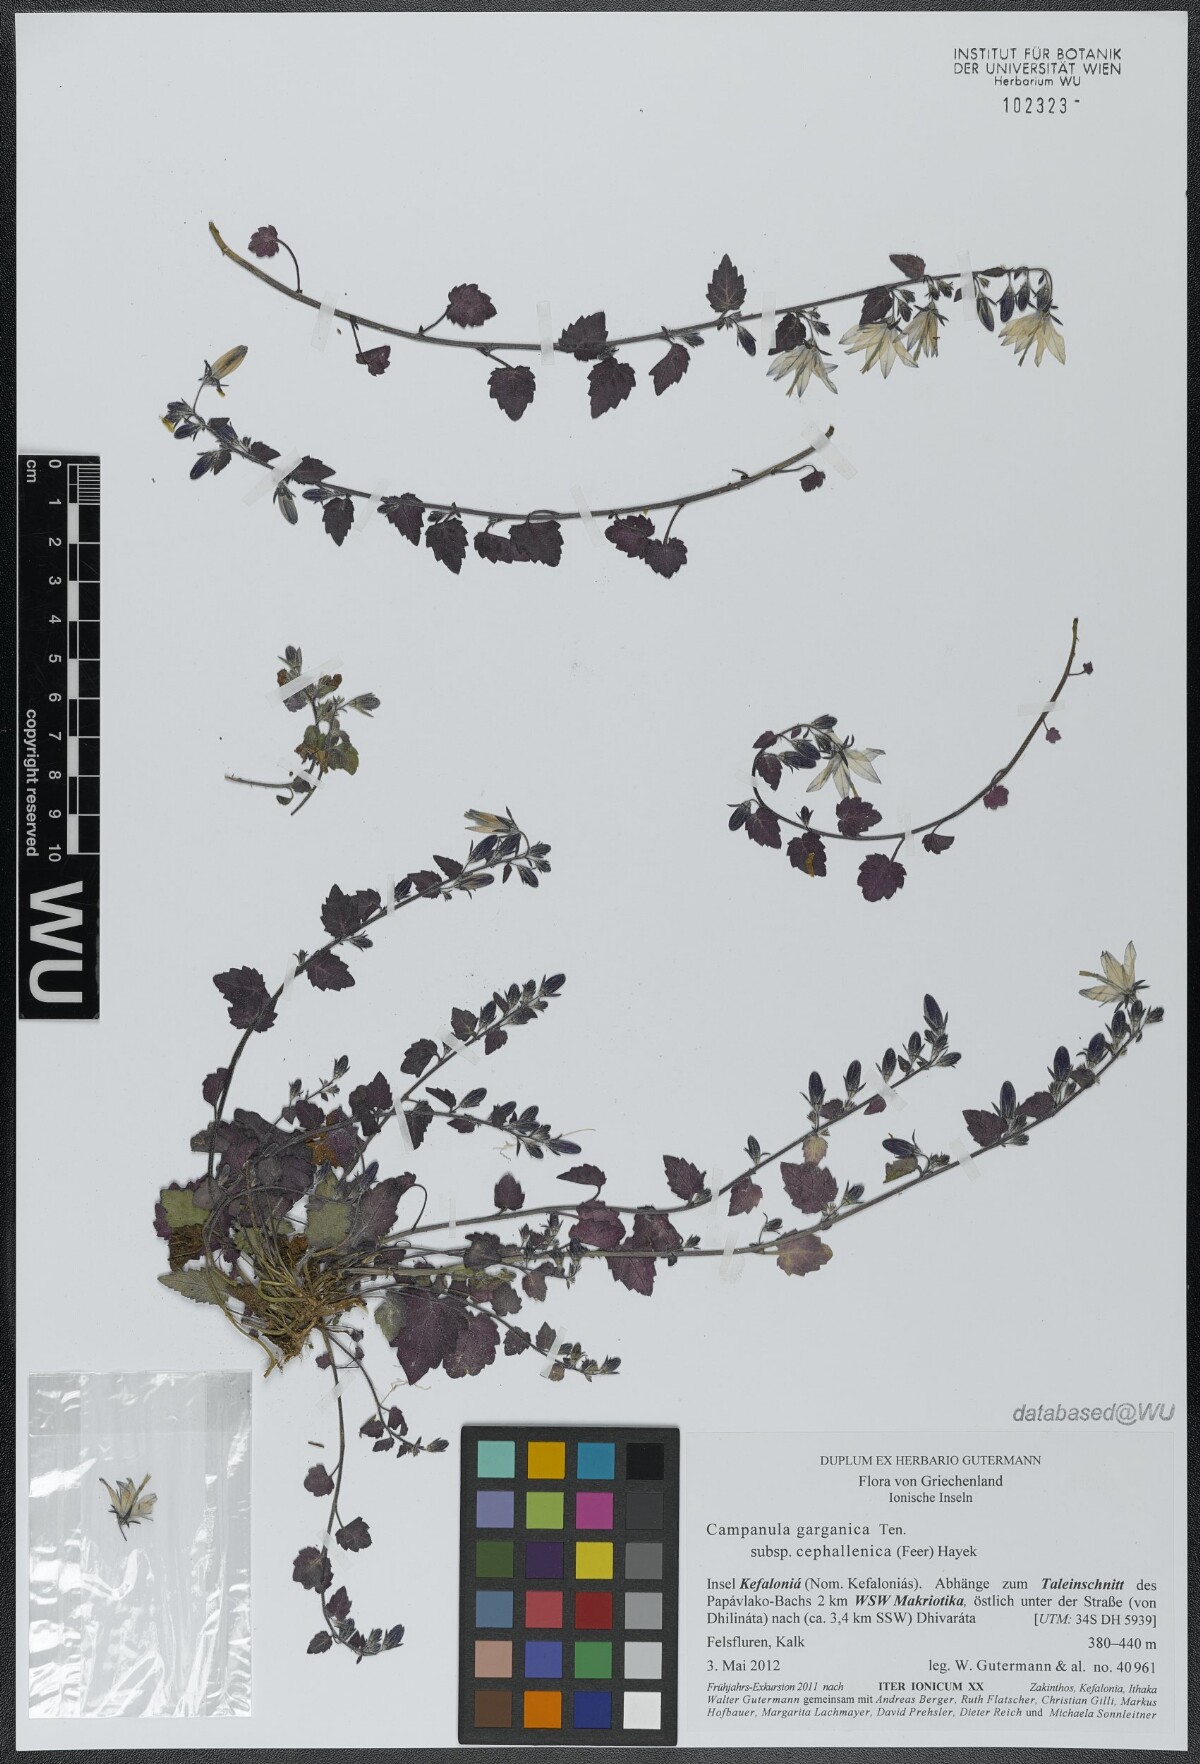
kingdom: Plantae
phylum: Tracheophyta
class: Magnoliopsida
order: Asterales
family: Campanulaceae
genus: Campanula
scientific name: Campanula garganica
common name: Adriatic bellflower
